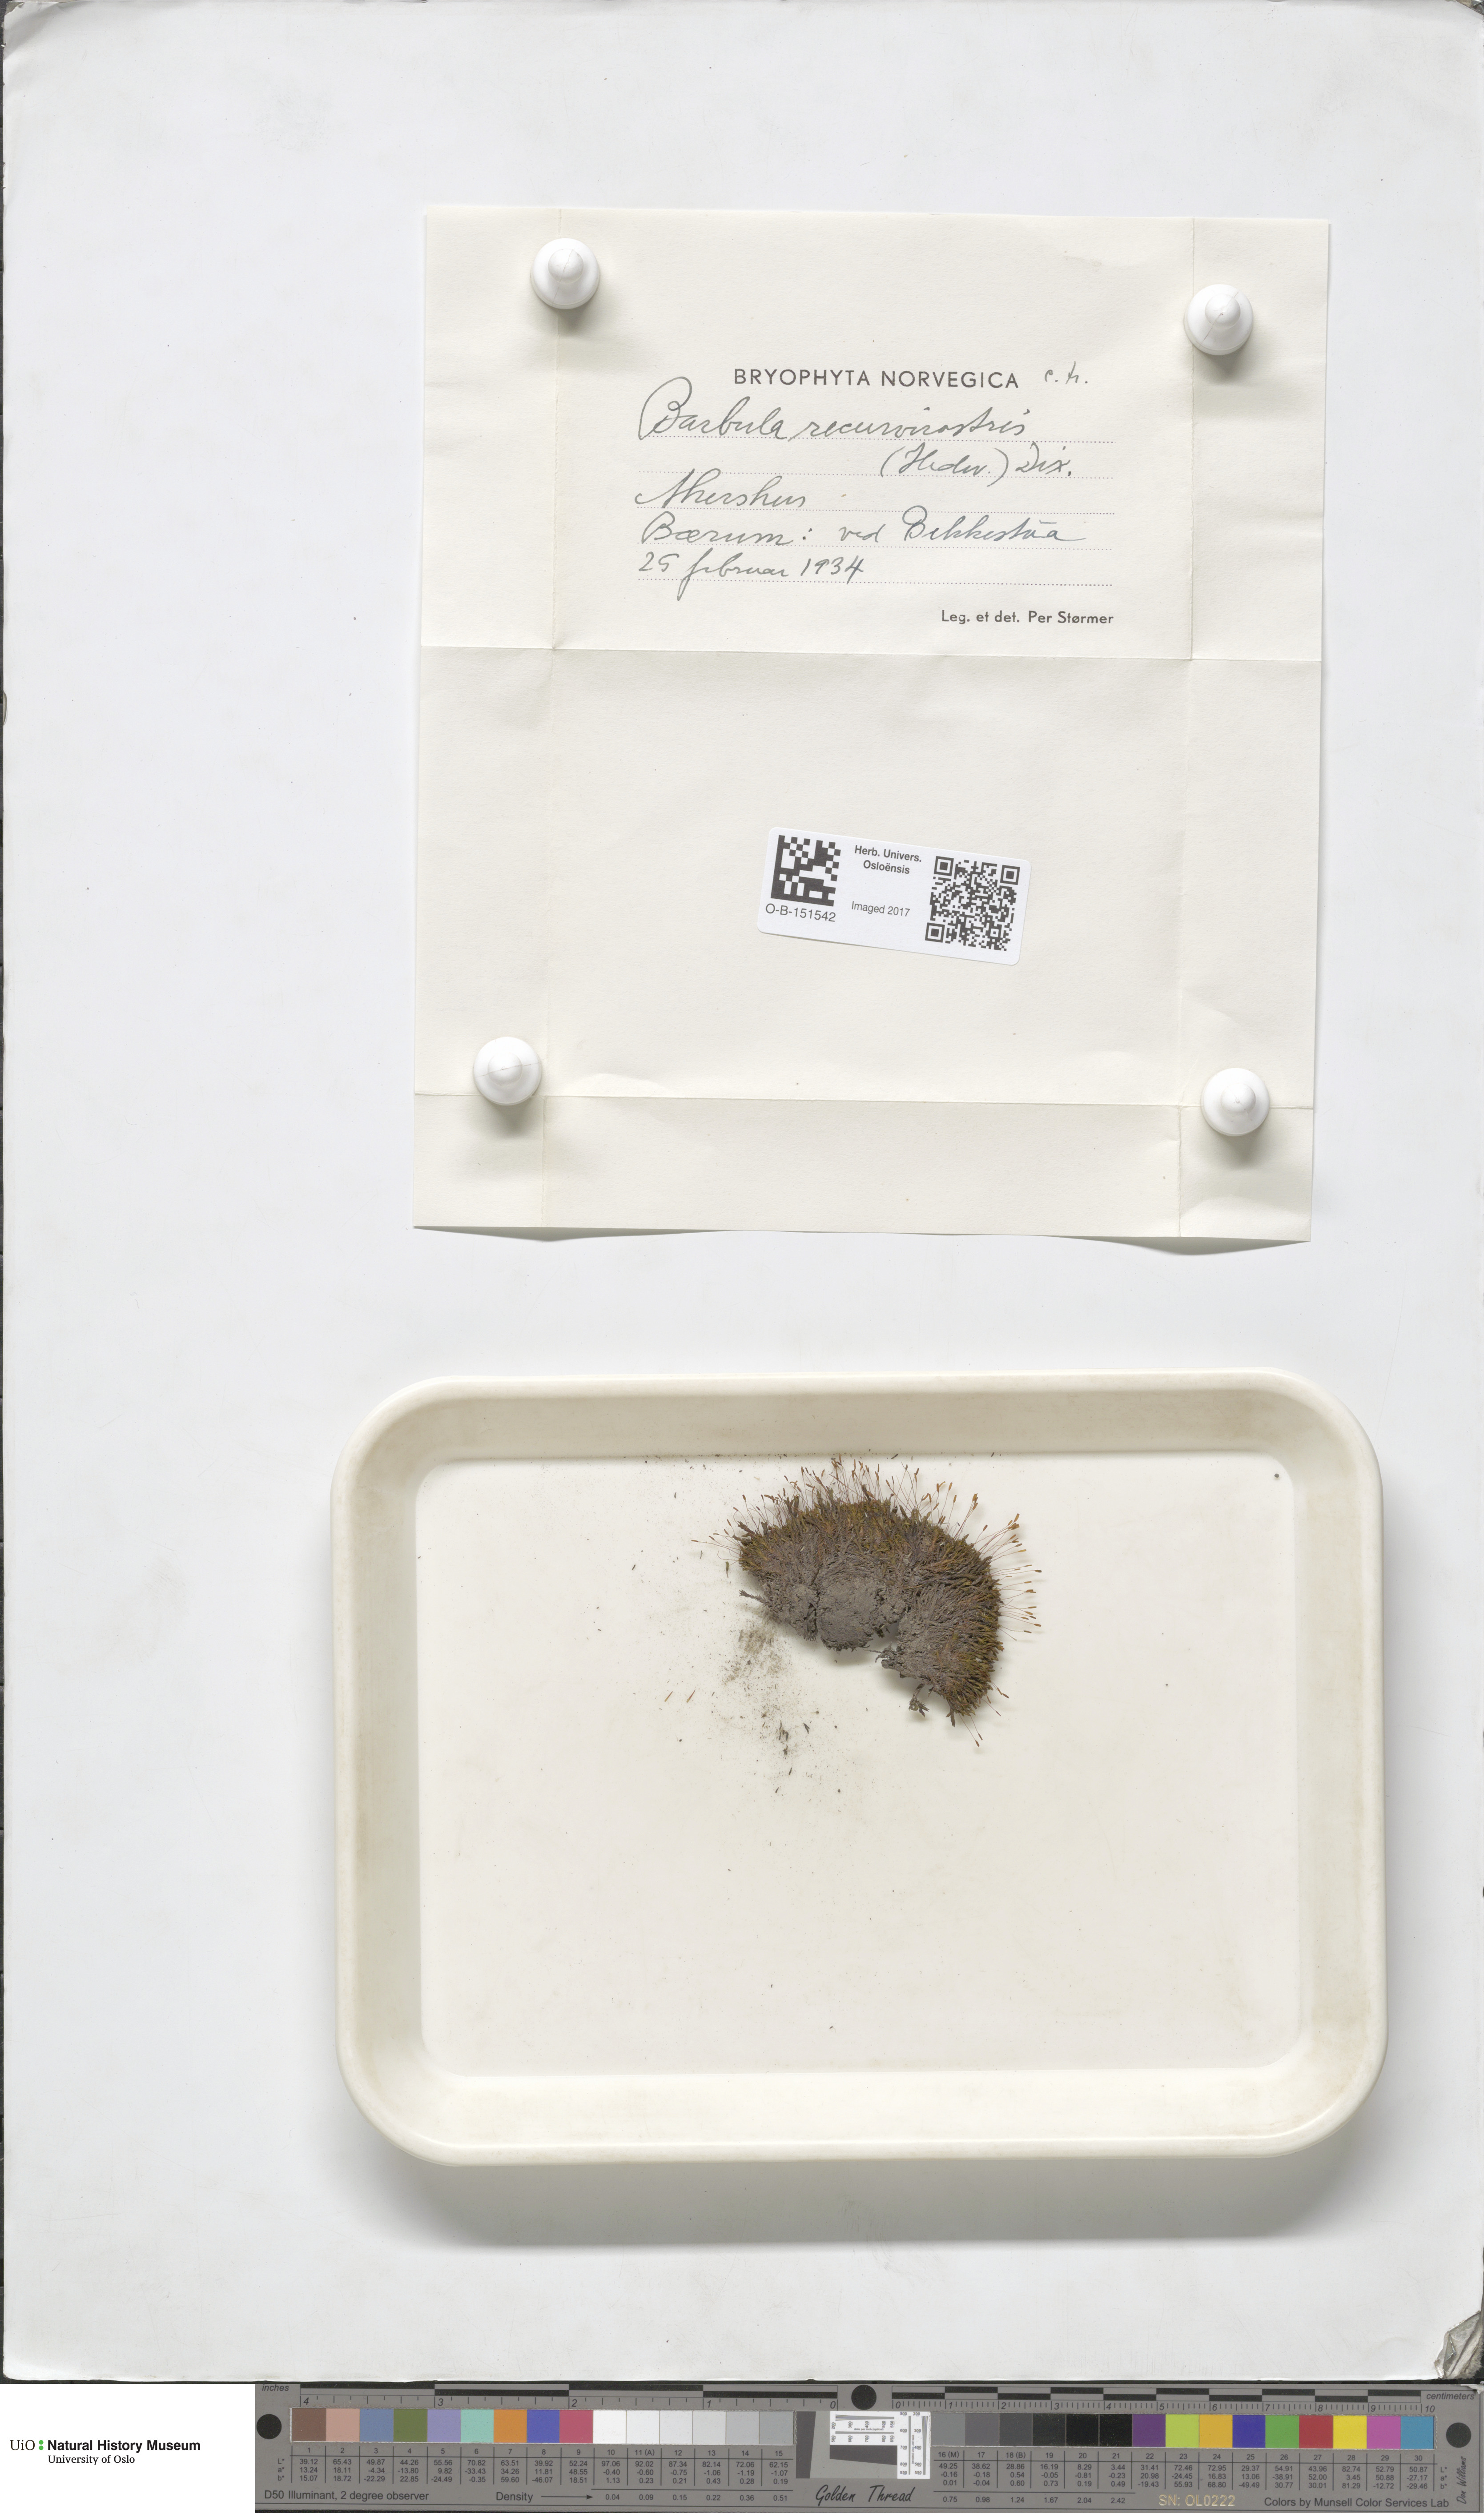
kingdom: Plantae
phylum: Bryophyta
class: Bryopsida
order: Pottiales
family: Pottiaceae
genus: Bryoerythrophyllum
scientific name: Bryoerythrophyllum recurvirostrum
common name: Red beard moss
